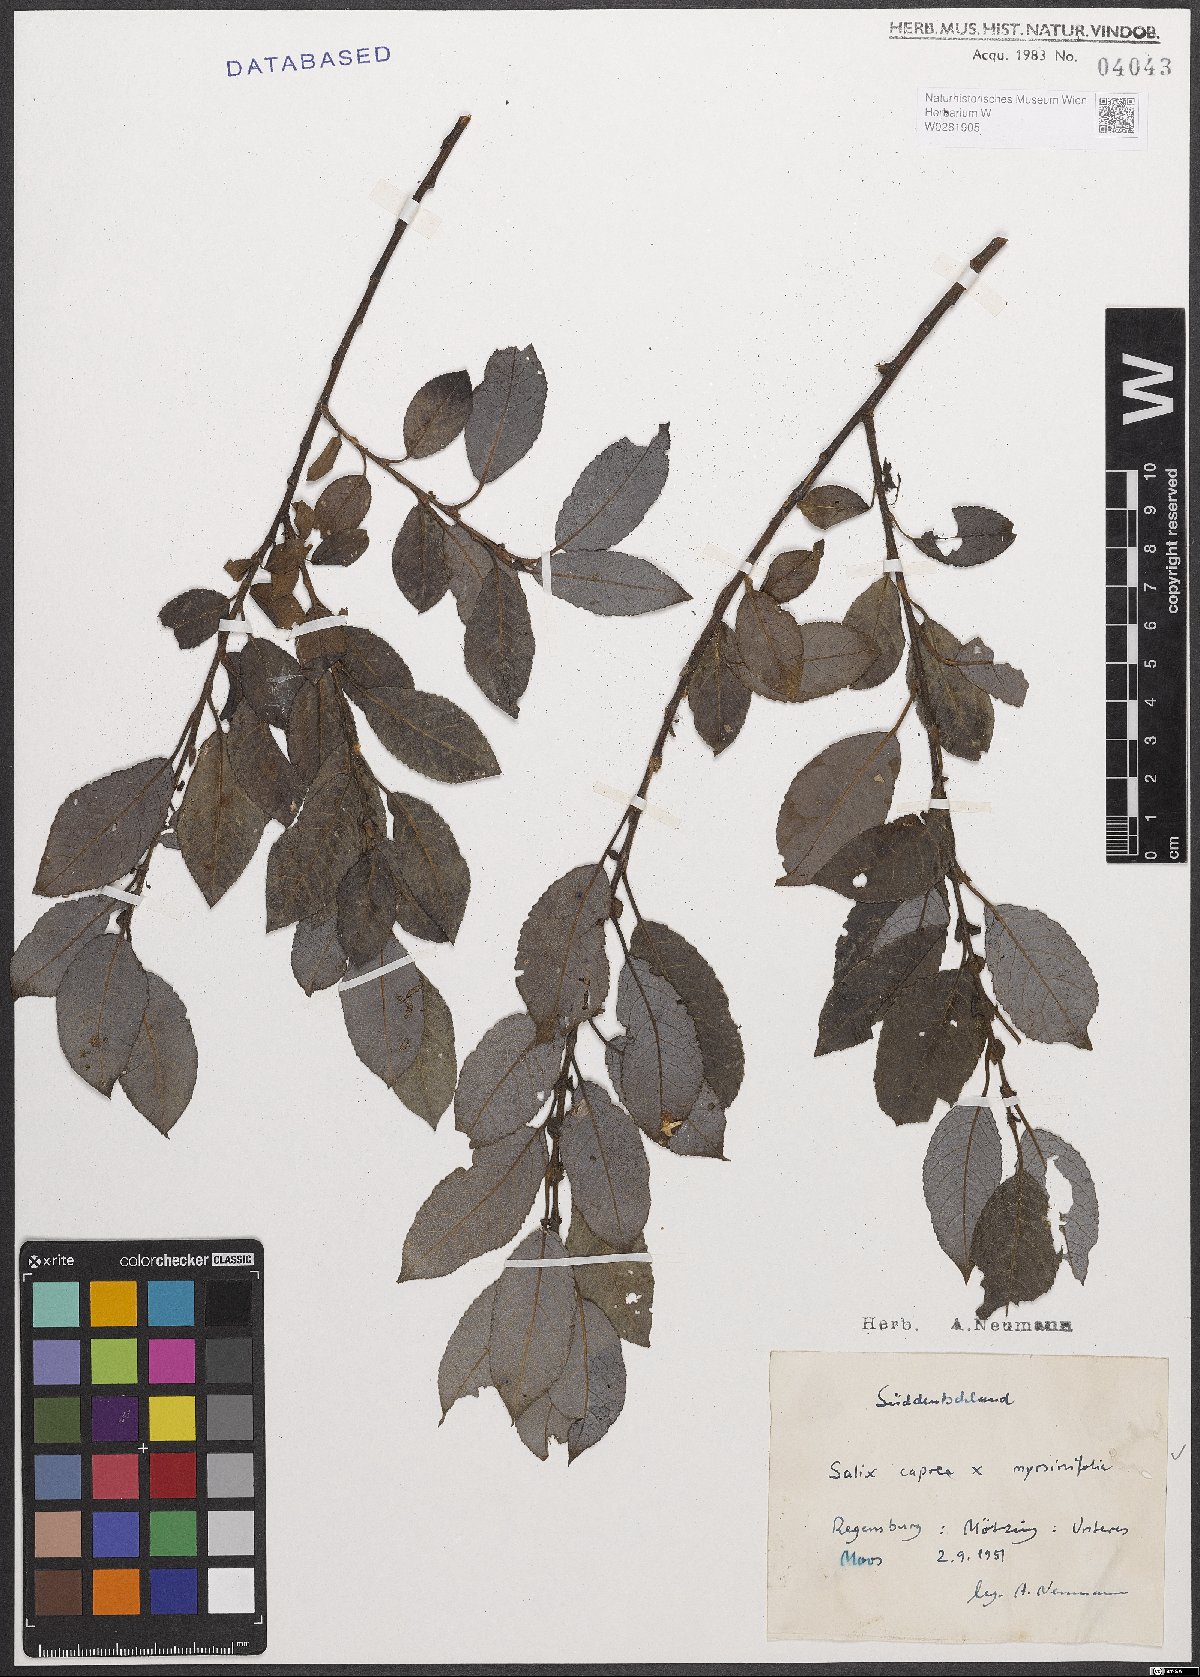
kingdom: Plantae
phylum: Tracheophyta
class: Magnoliopsida
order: Malpighiales
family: Salicaceae
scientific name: Salicaceae
